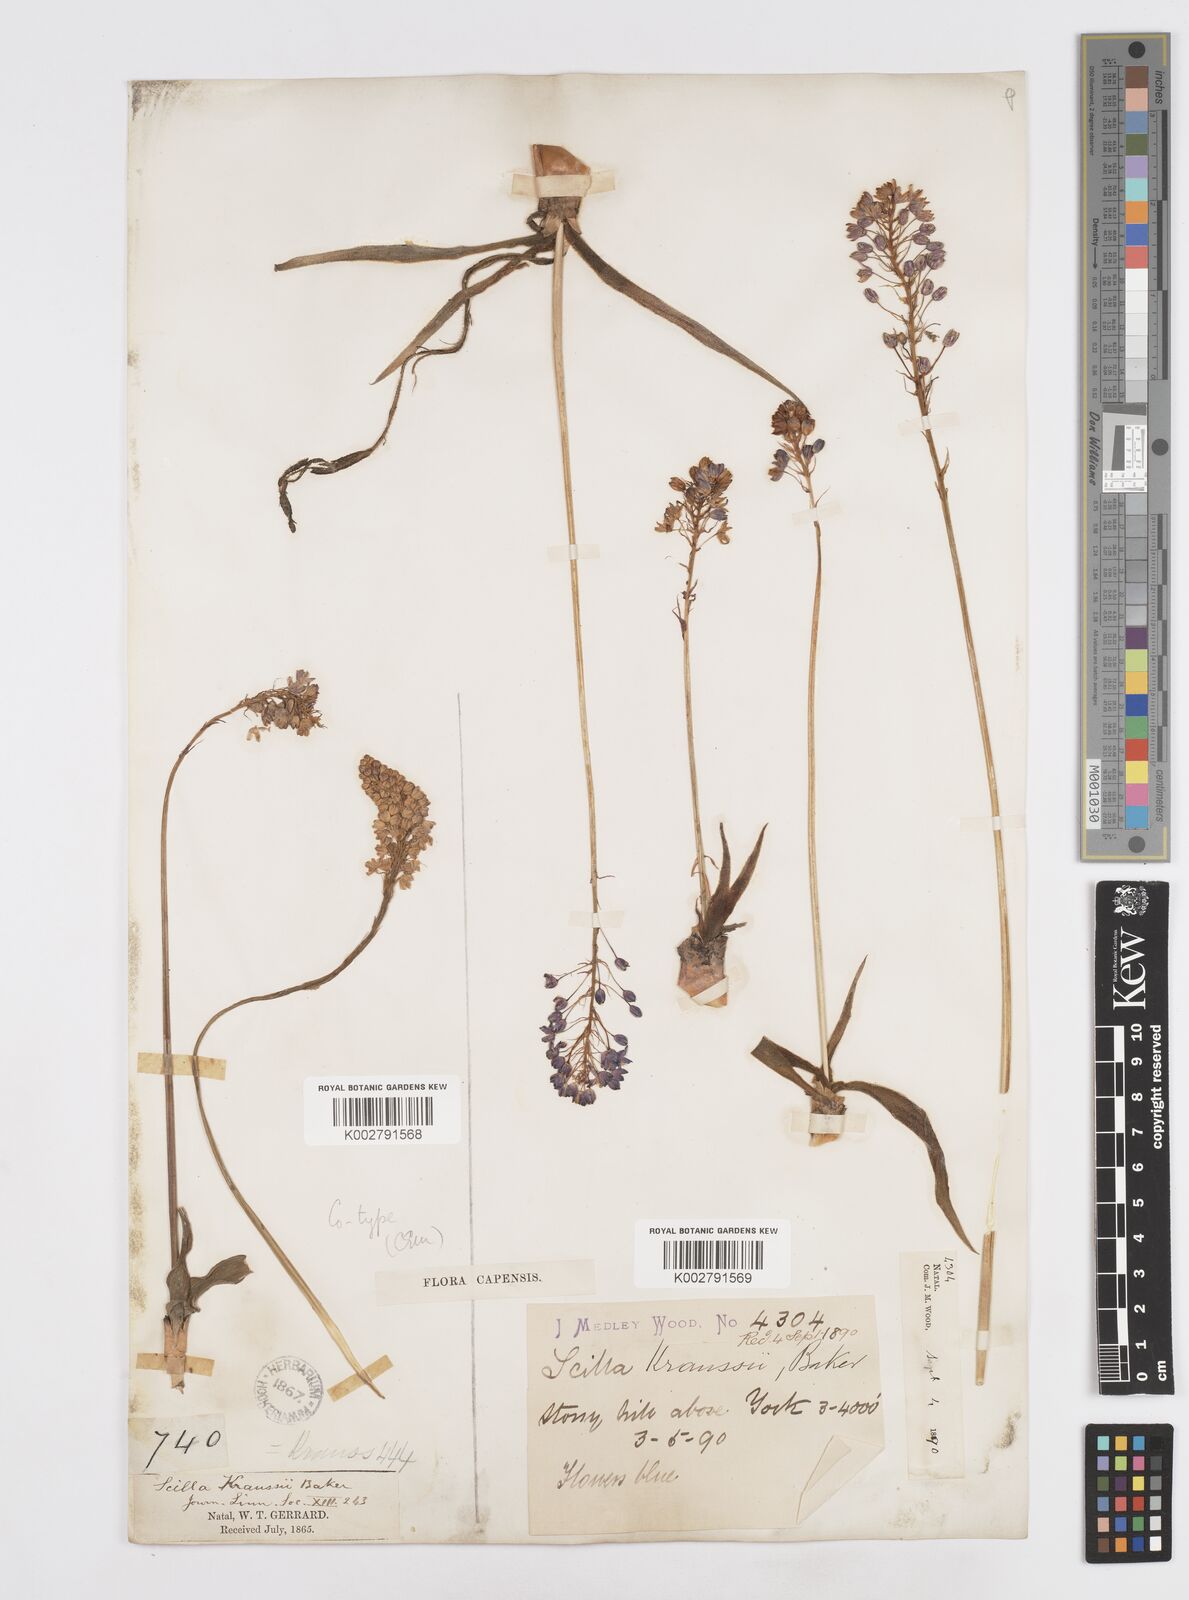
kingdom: Plantae
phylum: Tracheophyta
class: Liliopsida
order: Asparagales
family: Asparagaceae
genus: Merwilla
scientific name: Merwilla plumbea
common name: Blue-squill
